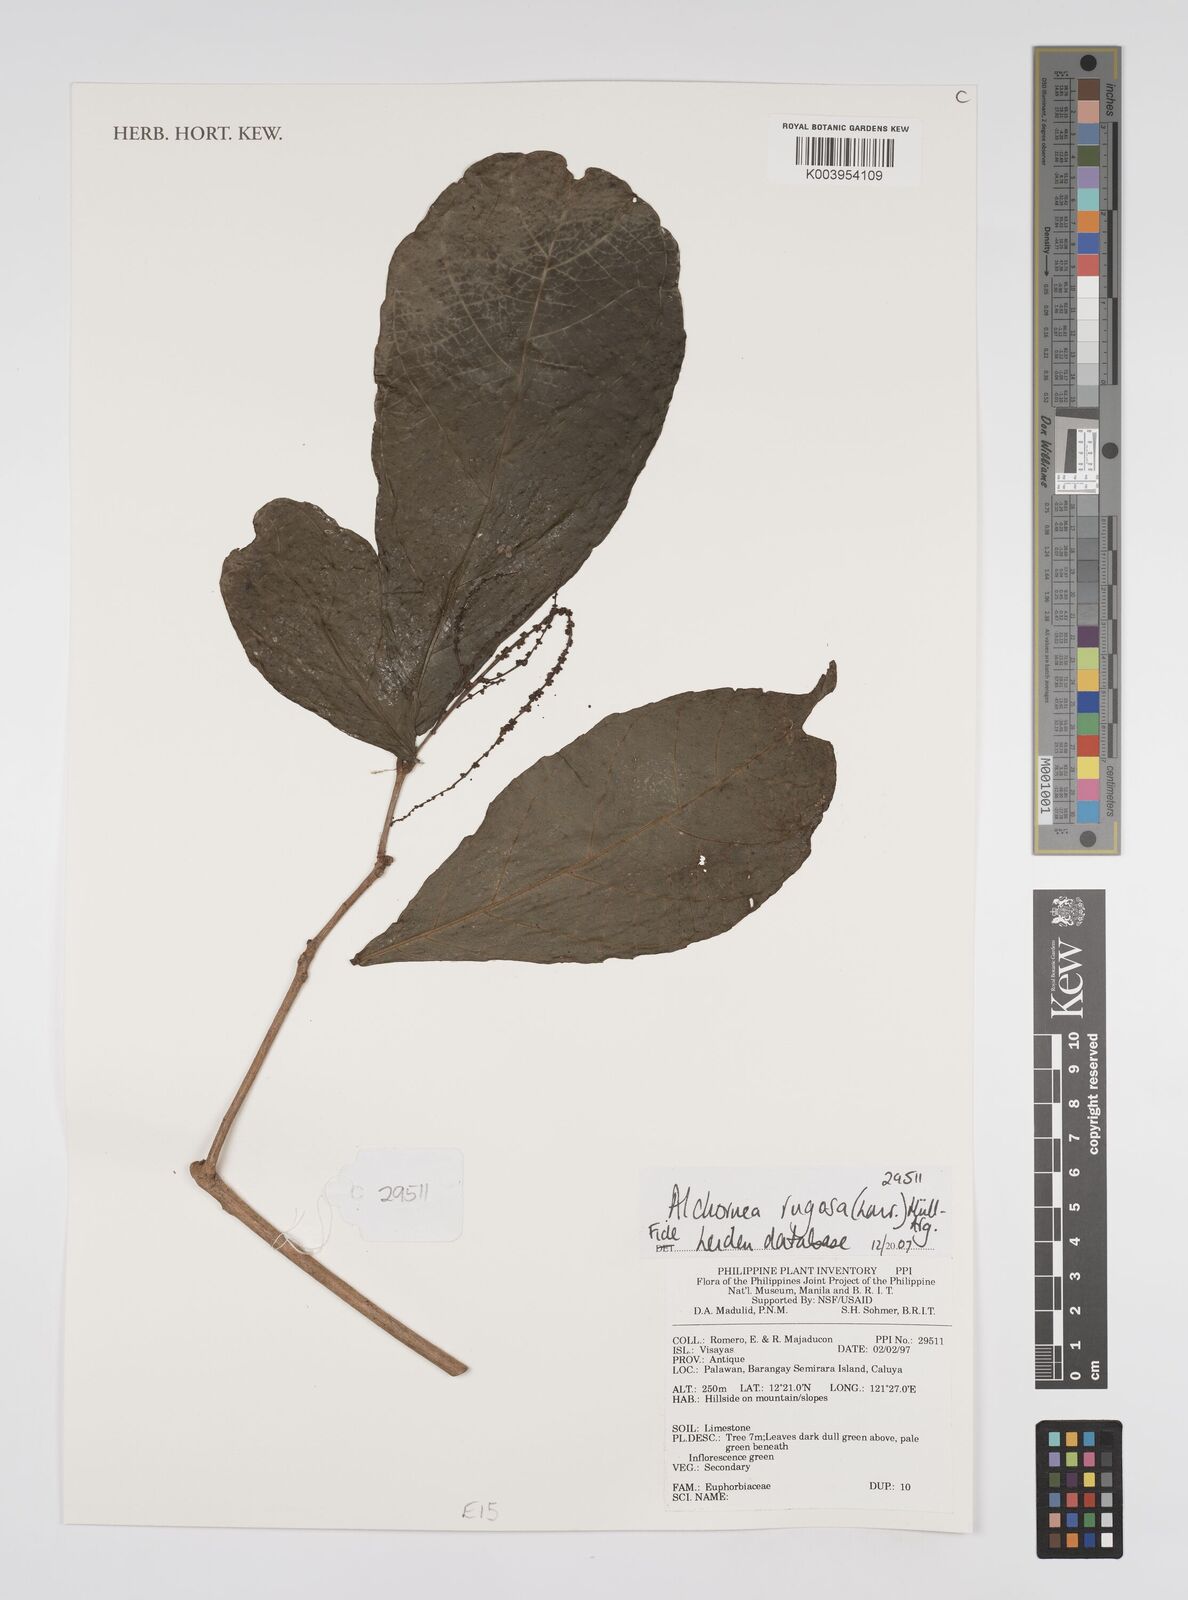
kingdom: Plantae
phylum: Tracheophyta
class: Magnoliopsida
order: Malpighiales
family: Euphorbiaceae
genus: Alchornea
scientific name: Alchornea rugosa
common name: Alchorntree
